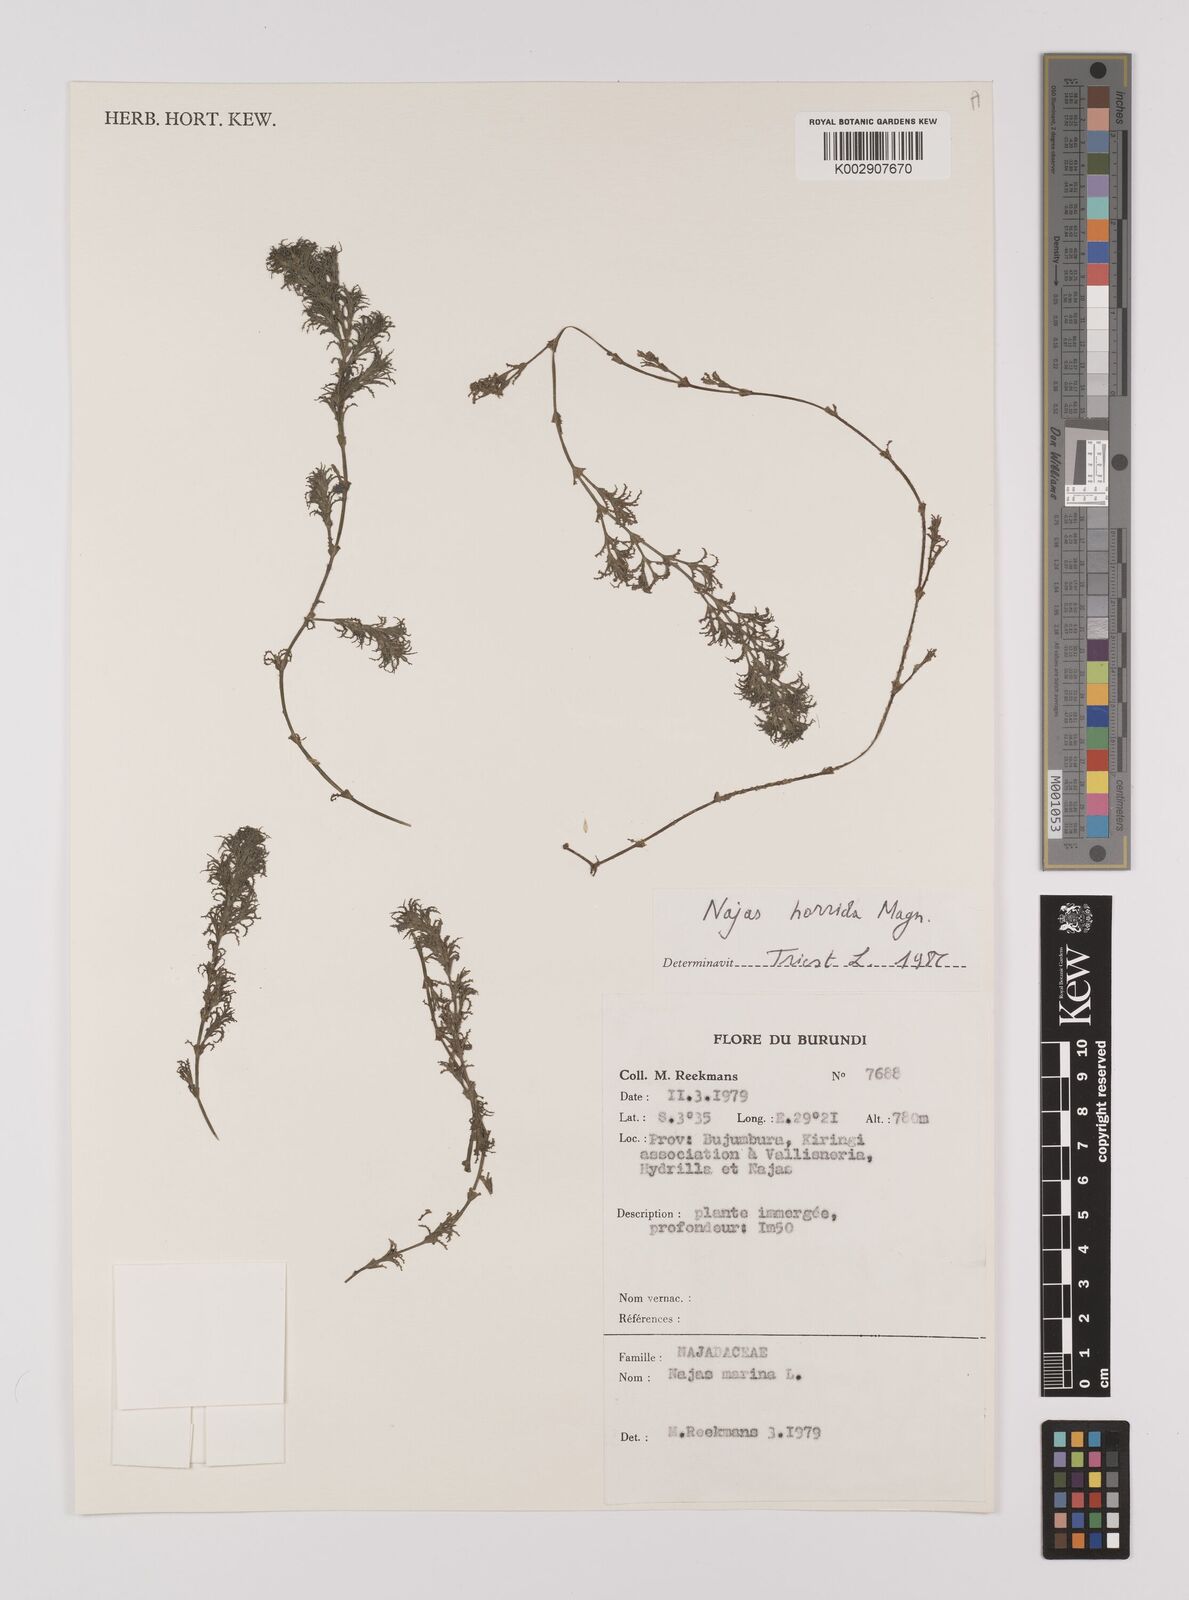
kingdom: Plantae
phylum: Tracheophyta
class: Liliopsida
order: Alismatales
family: Hydrocharitaceae
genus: Najas
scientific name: Najas pectinata
